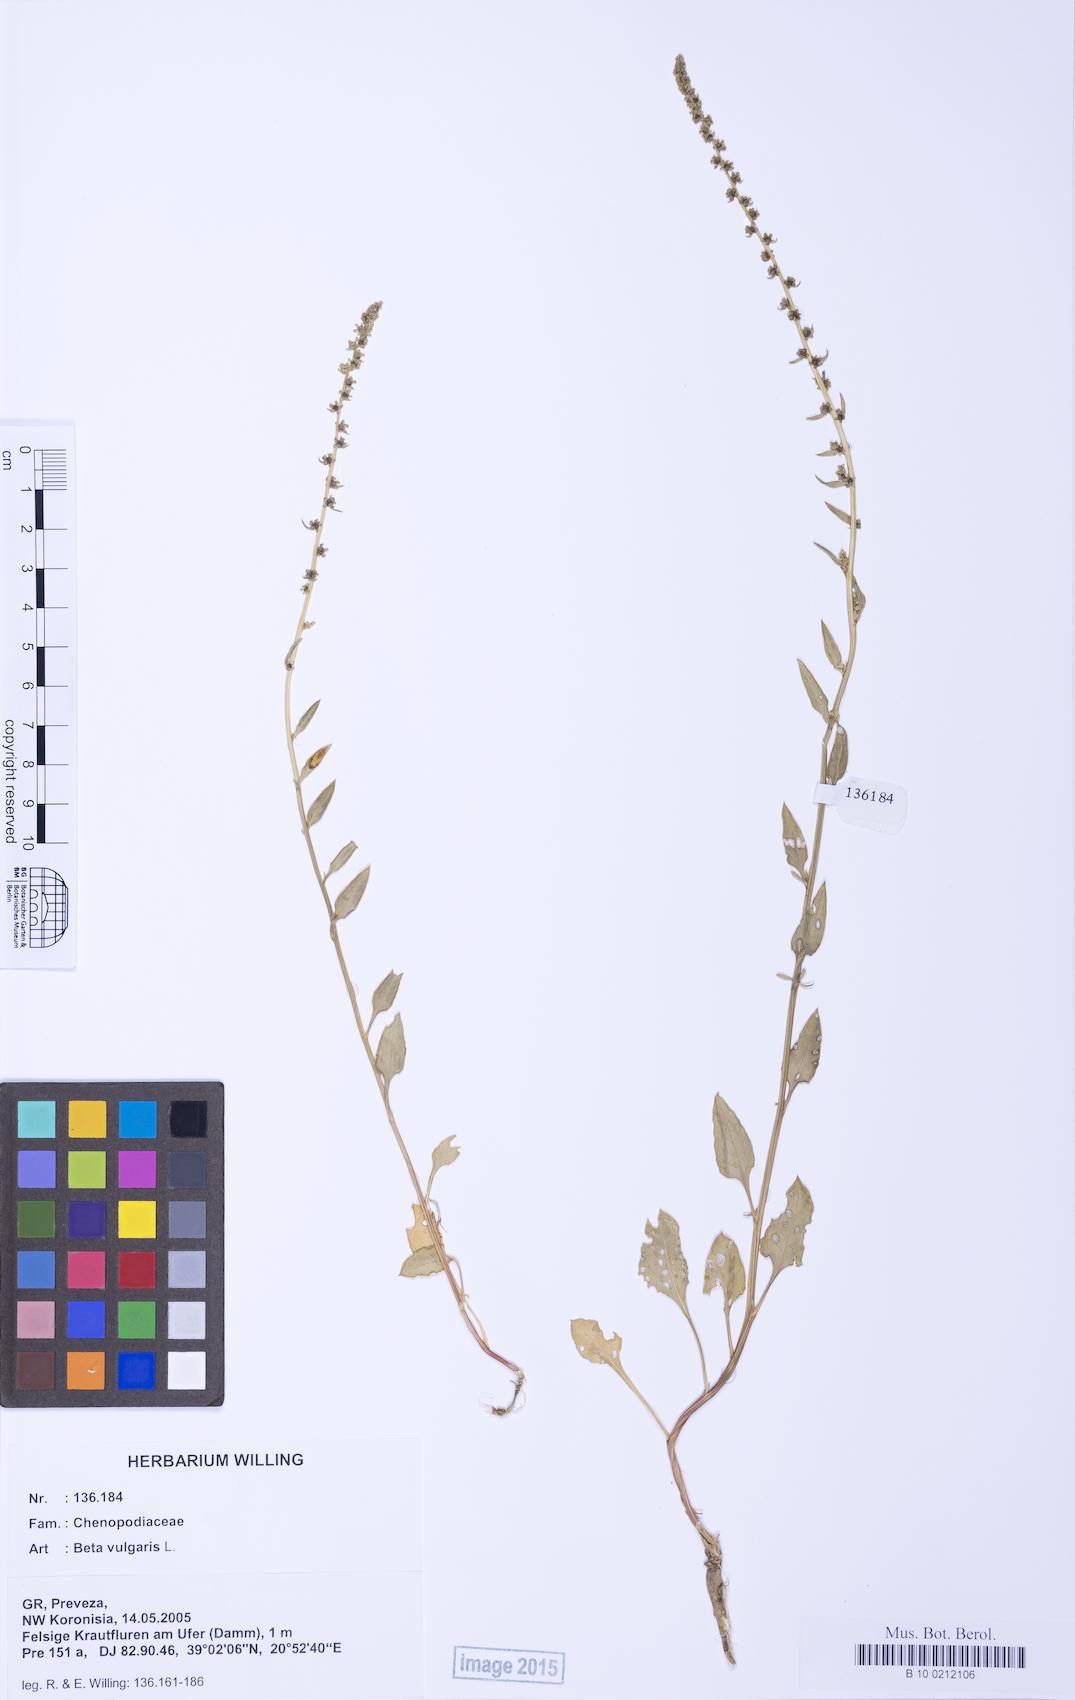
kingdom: Plantae
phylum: Tracheophyta
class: Magnoliopsida
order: Caryophyllales
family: Amaranthaceae
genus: Beta
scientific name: Beta macrocarpa
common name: Beet
